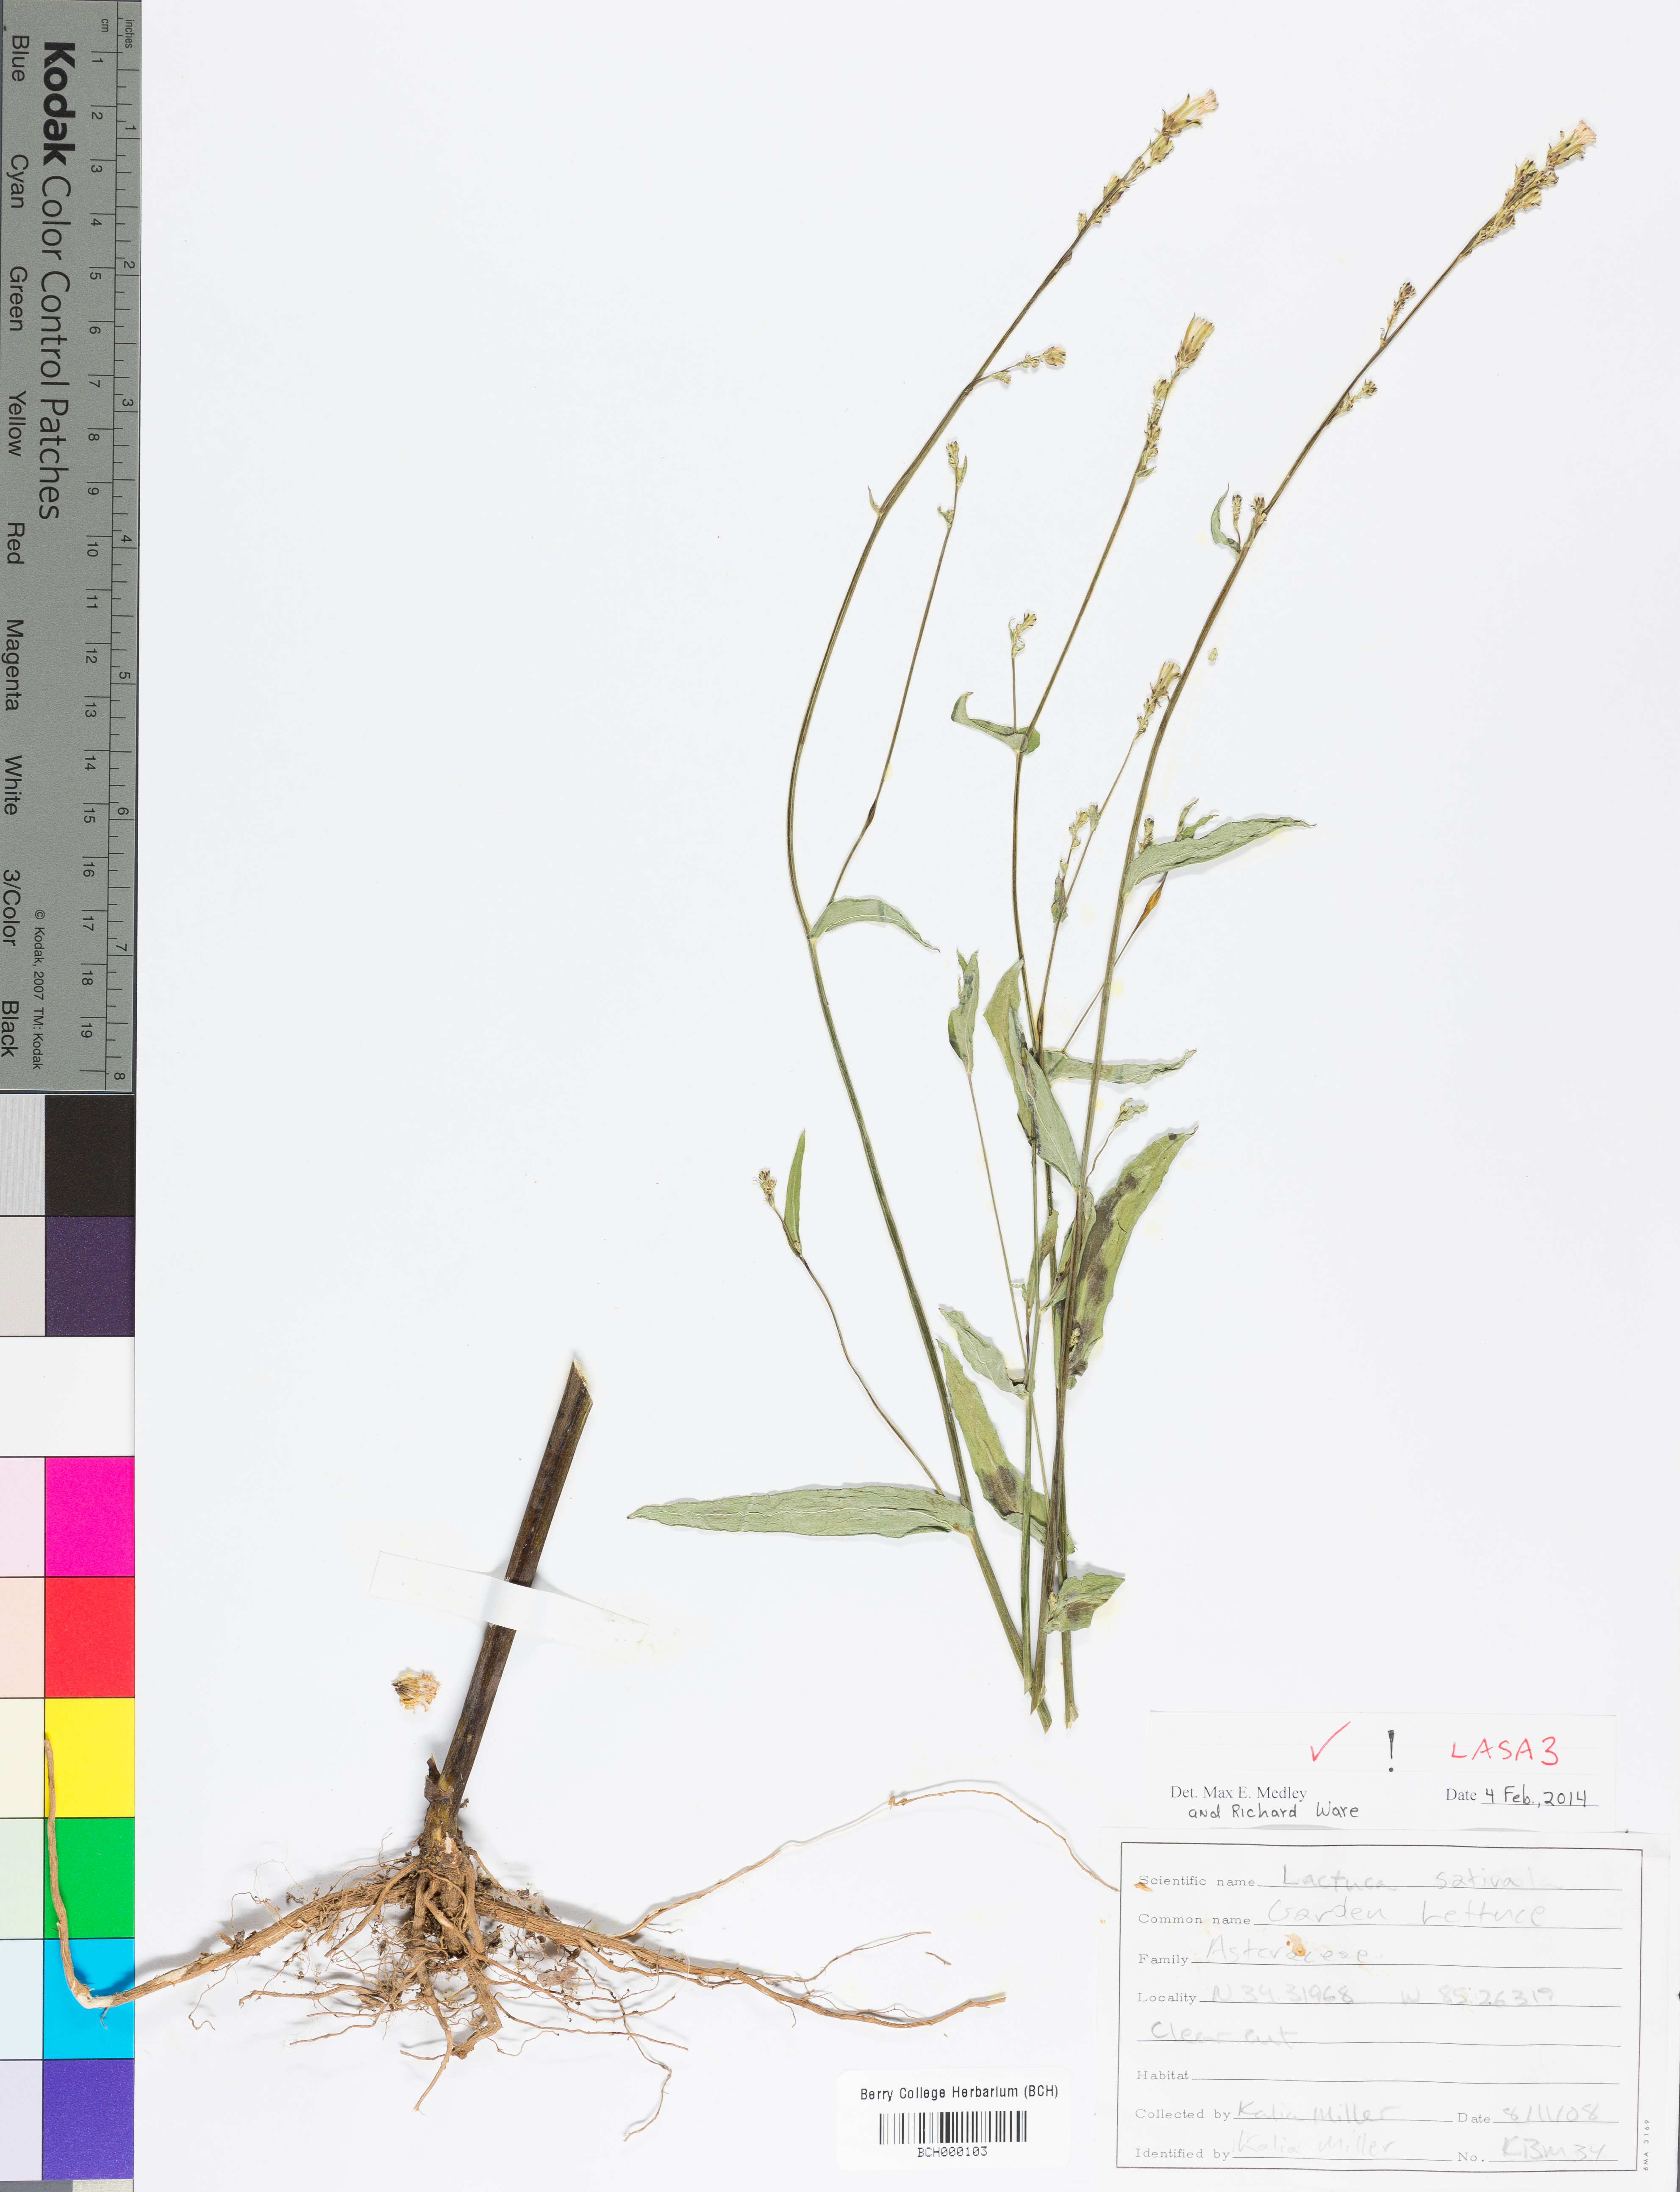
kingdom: Plantae
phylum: Tracheophyta
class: Magnoliopsida
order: Asterales
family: Asteraceae
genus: Lactuca
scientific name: Lactuca sativa
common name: Garden lettuce
